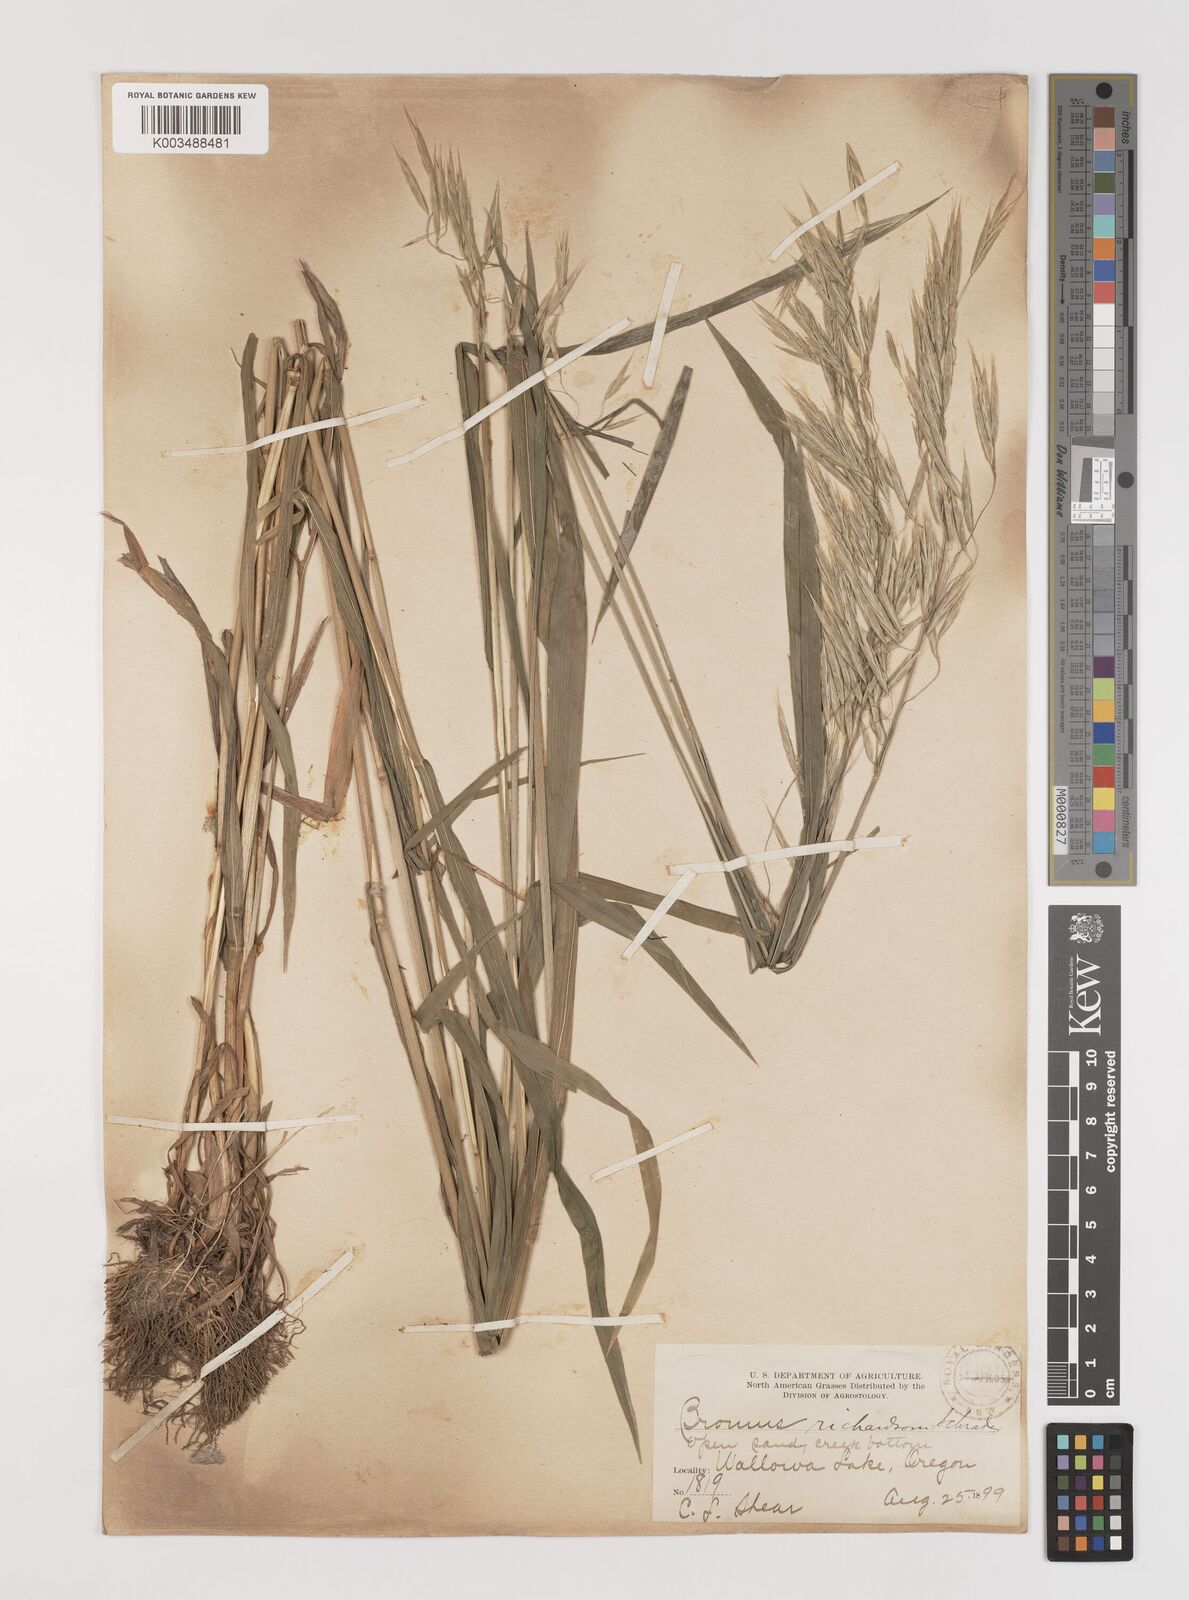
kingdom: Plantae
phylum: Tracheophyta
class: Liliopsida
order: Poales
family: Poaceae
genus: Bromus
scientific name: Bromus richardsonii
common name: Richardson's brome
